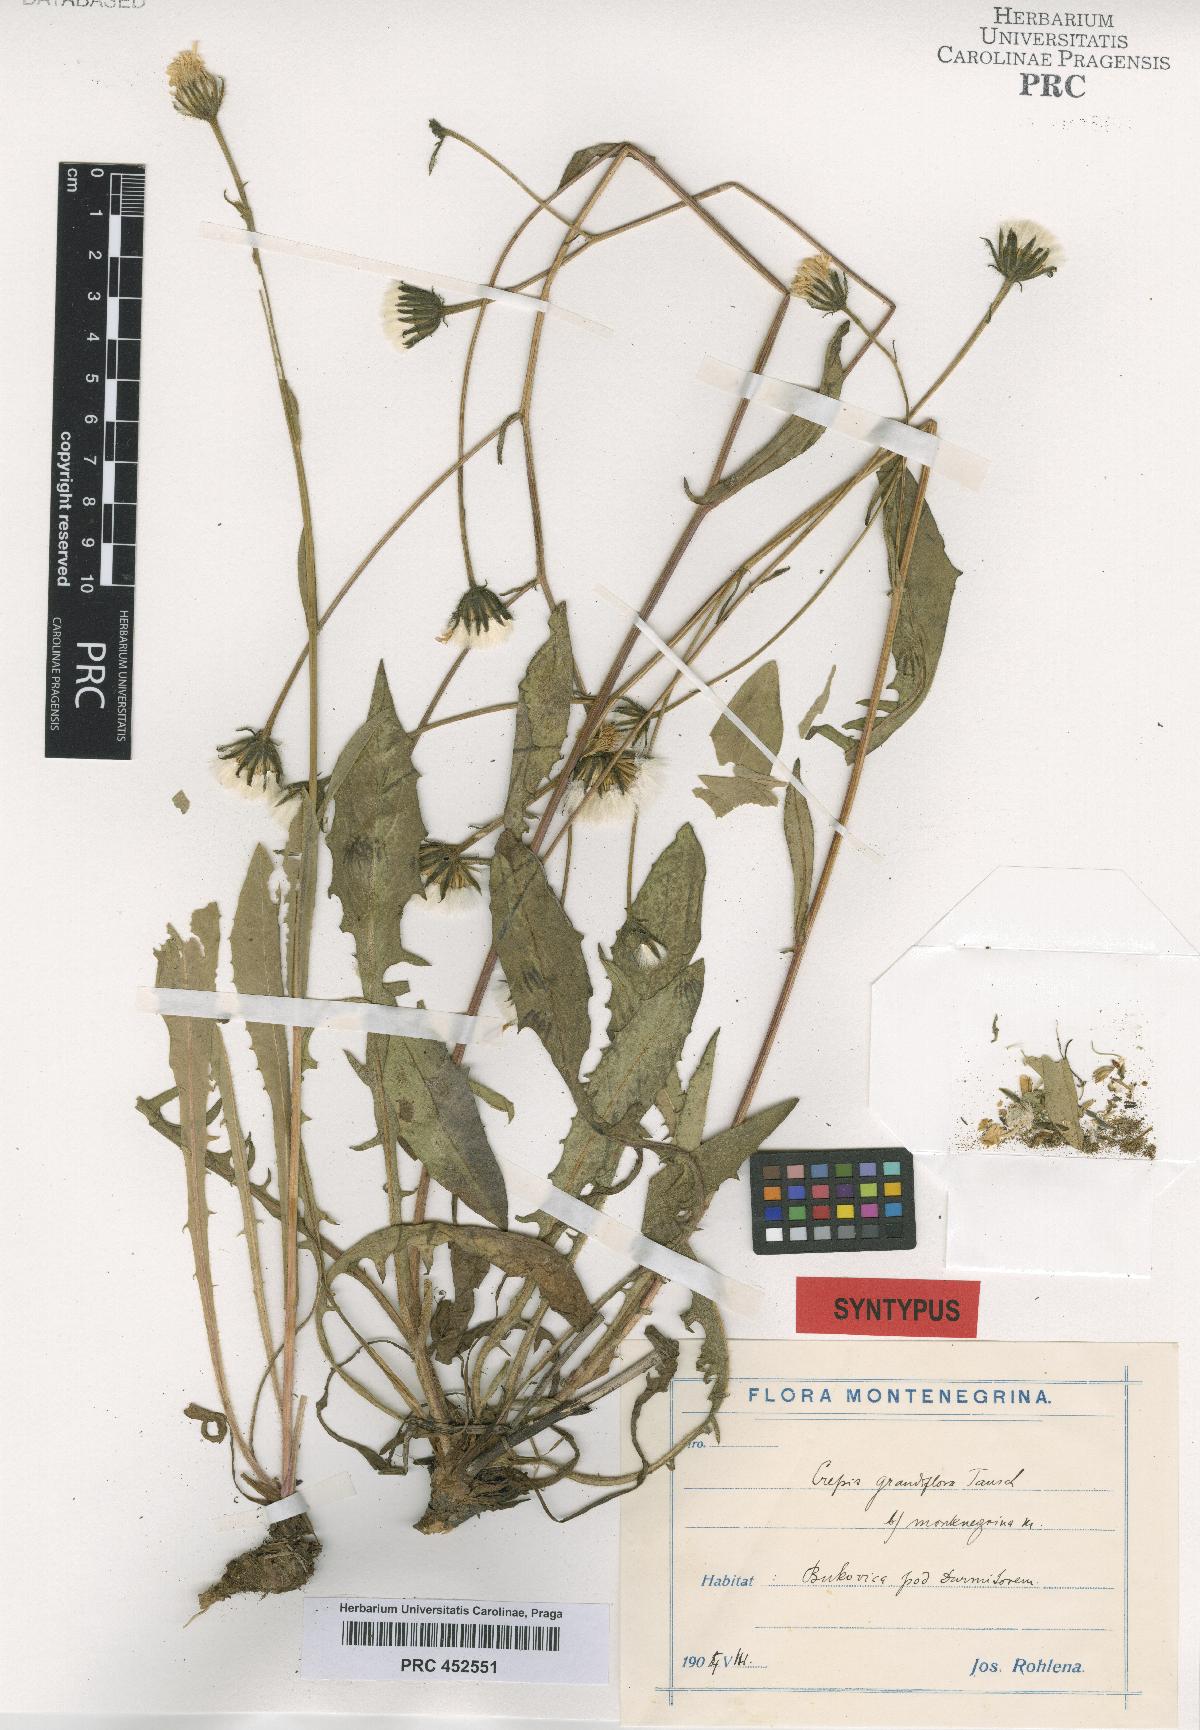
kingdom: Plantae
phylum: Tracheophyta
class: Magnoliopsida
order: Asterales
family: Asteraceae
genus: Crepis
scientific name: Crepis pyrenaica
